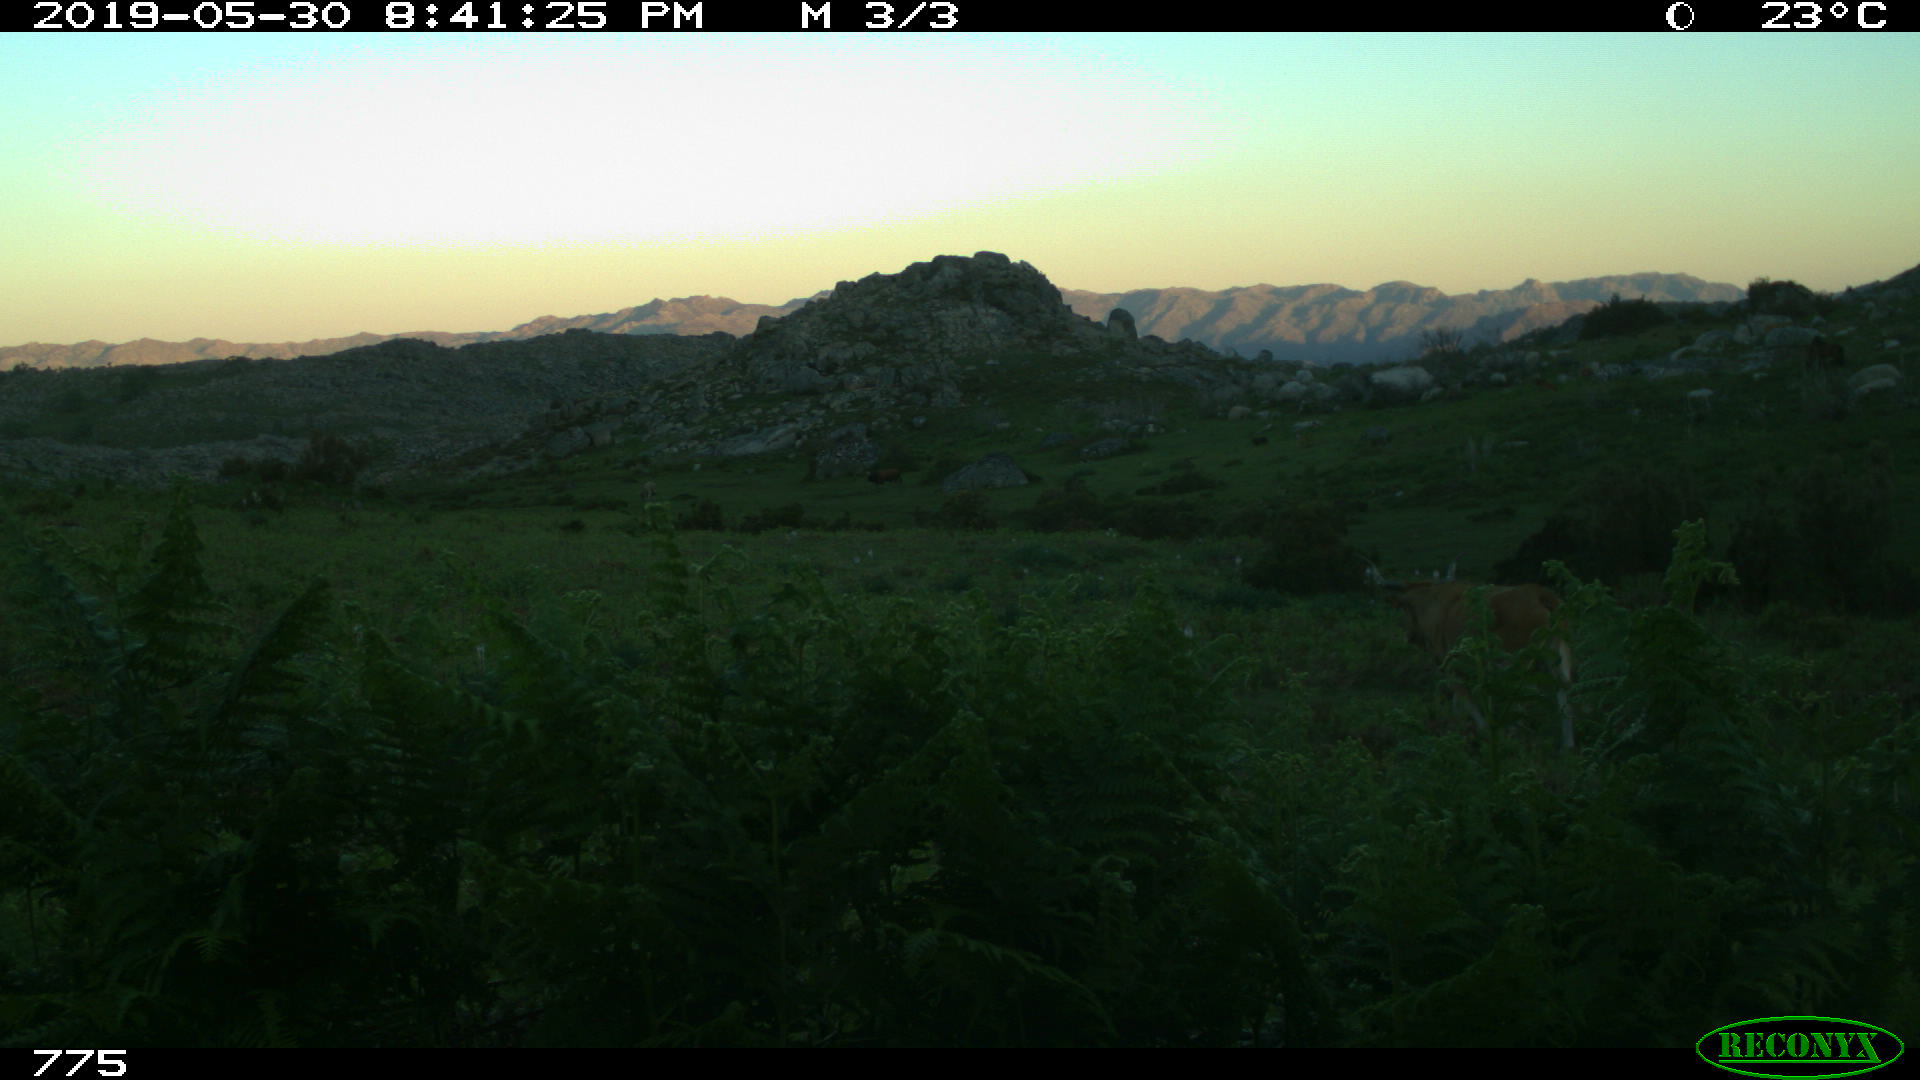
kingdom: Animalia
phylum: Chordata
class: Mammalia
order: Artiodactyla
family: Bovidae
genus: Bos
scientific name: Bos taurus
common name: Domesticated cattle
